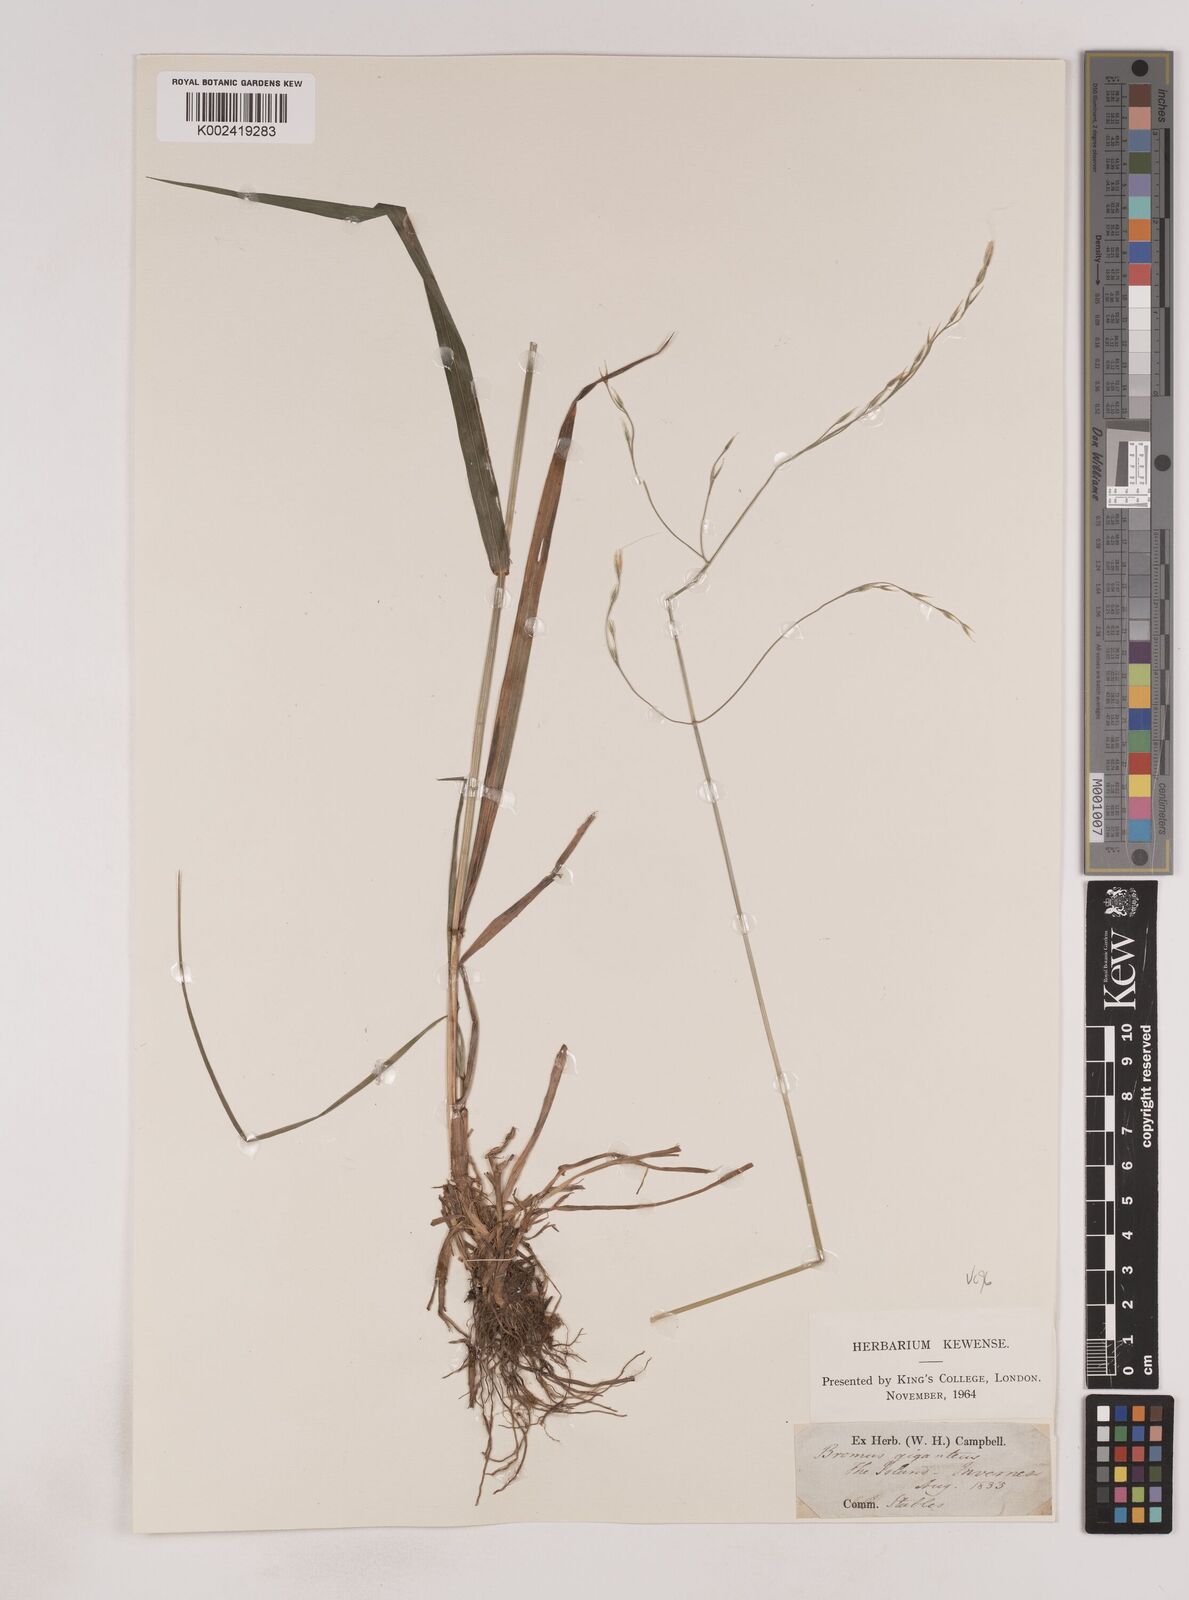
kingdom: Plantae
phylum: Tracheophyta
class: Liliopsida
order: Poales
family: Poaceae
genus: Lolium
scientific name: Lolium giganteum
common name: Giant fescue
